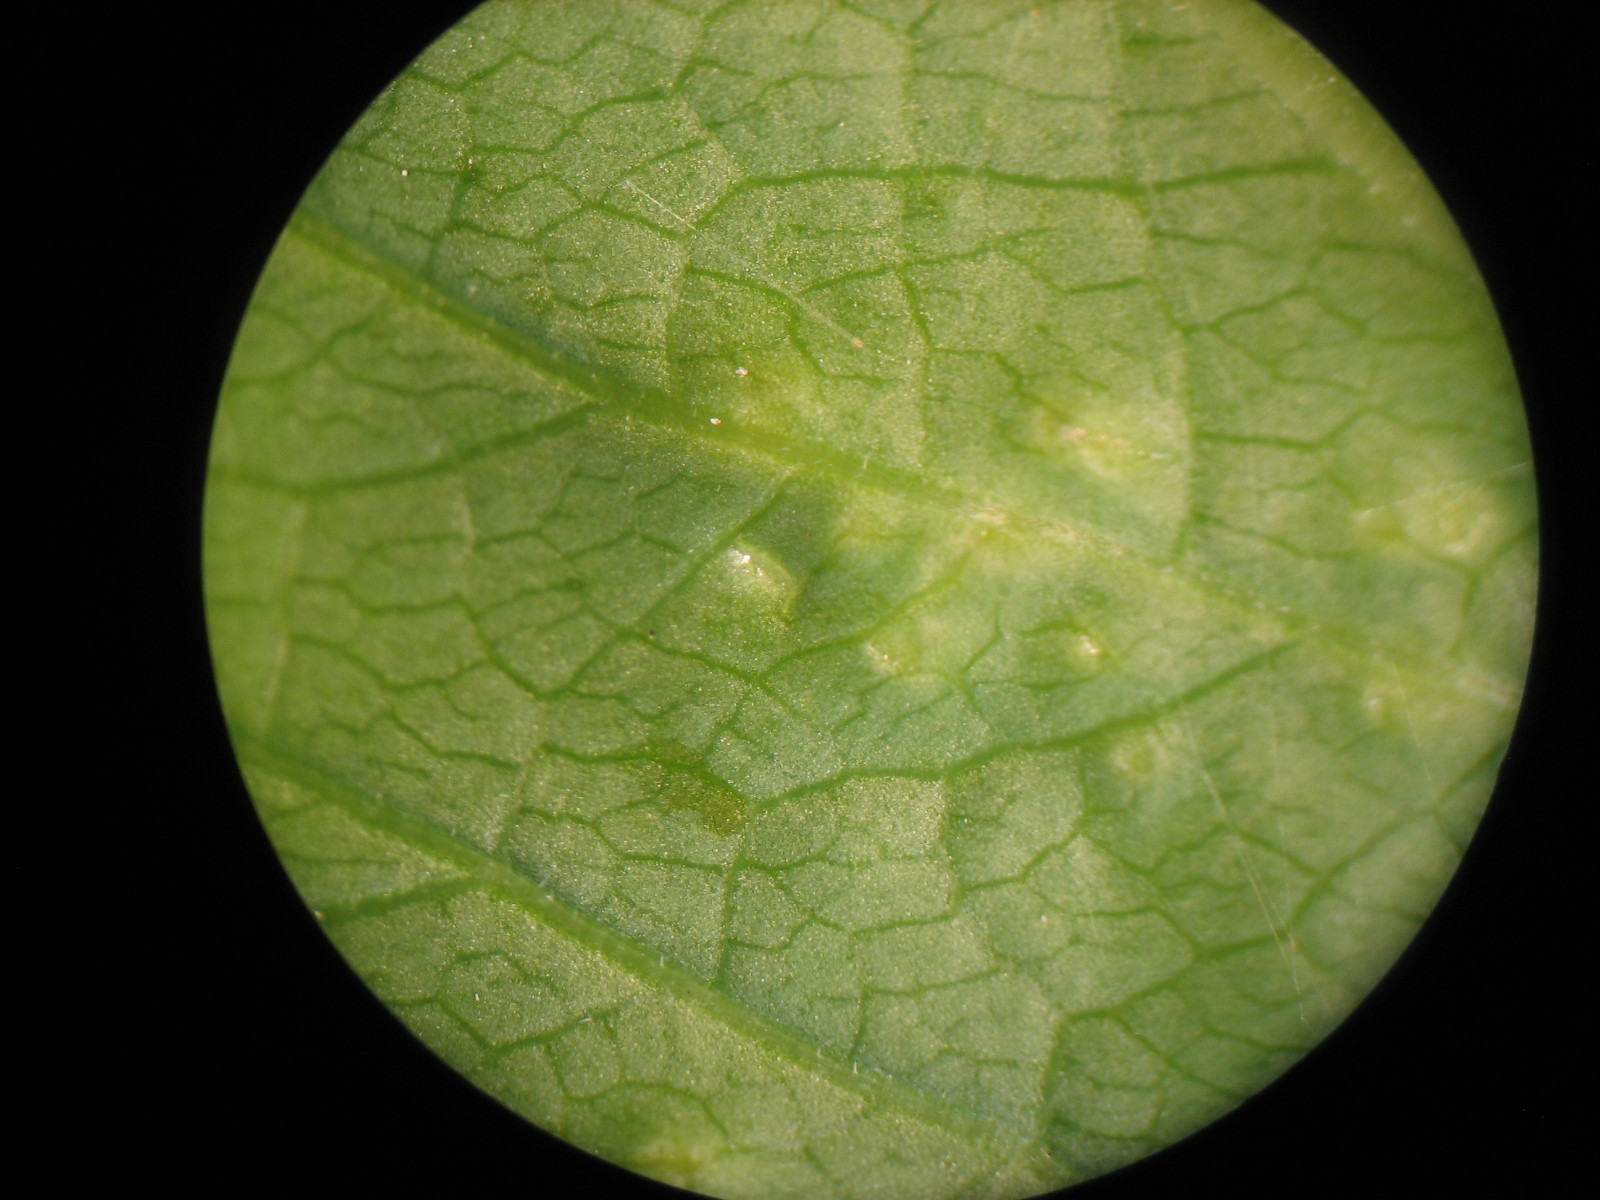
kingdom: Fungi
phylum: Ascomycota
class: Taphrinomycetes
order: Taphrinales
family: Taphrinaceae
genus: Protomyces
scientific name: Protomyces macrosporus
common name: skvalderkål-vablesæk
